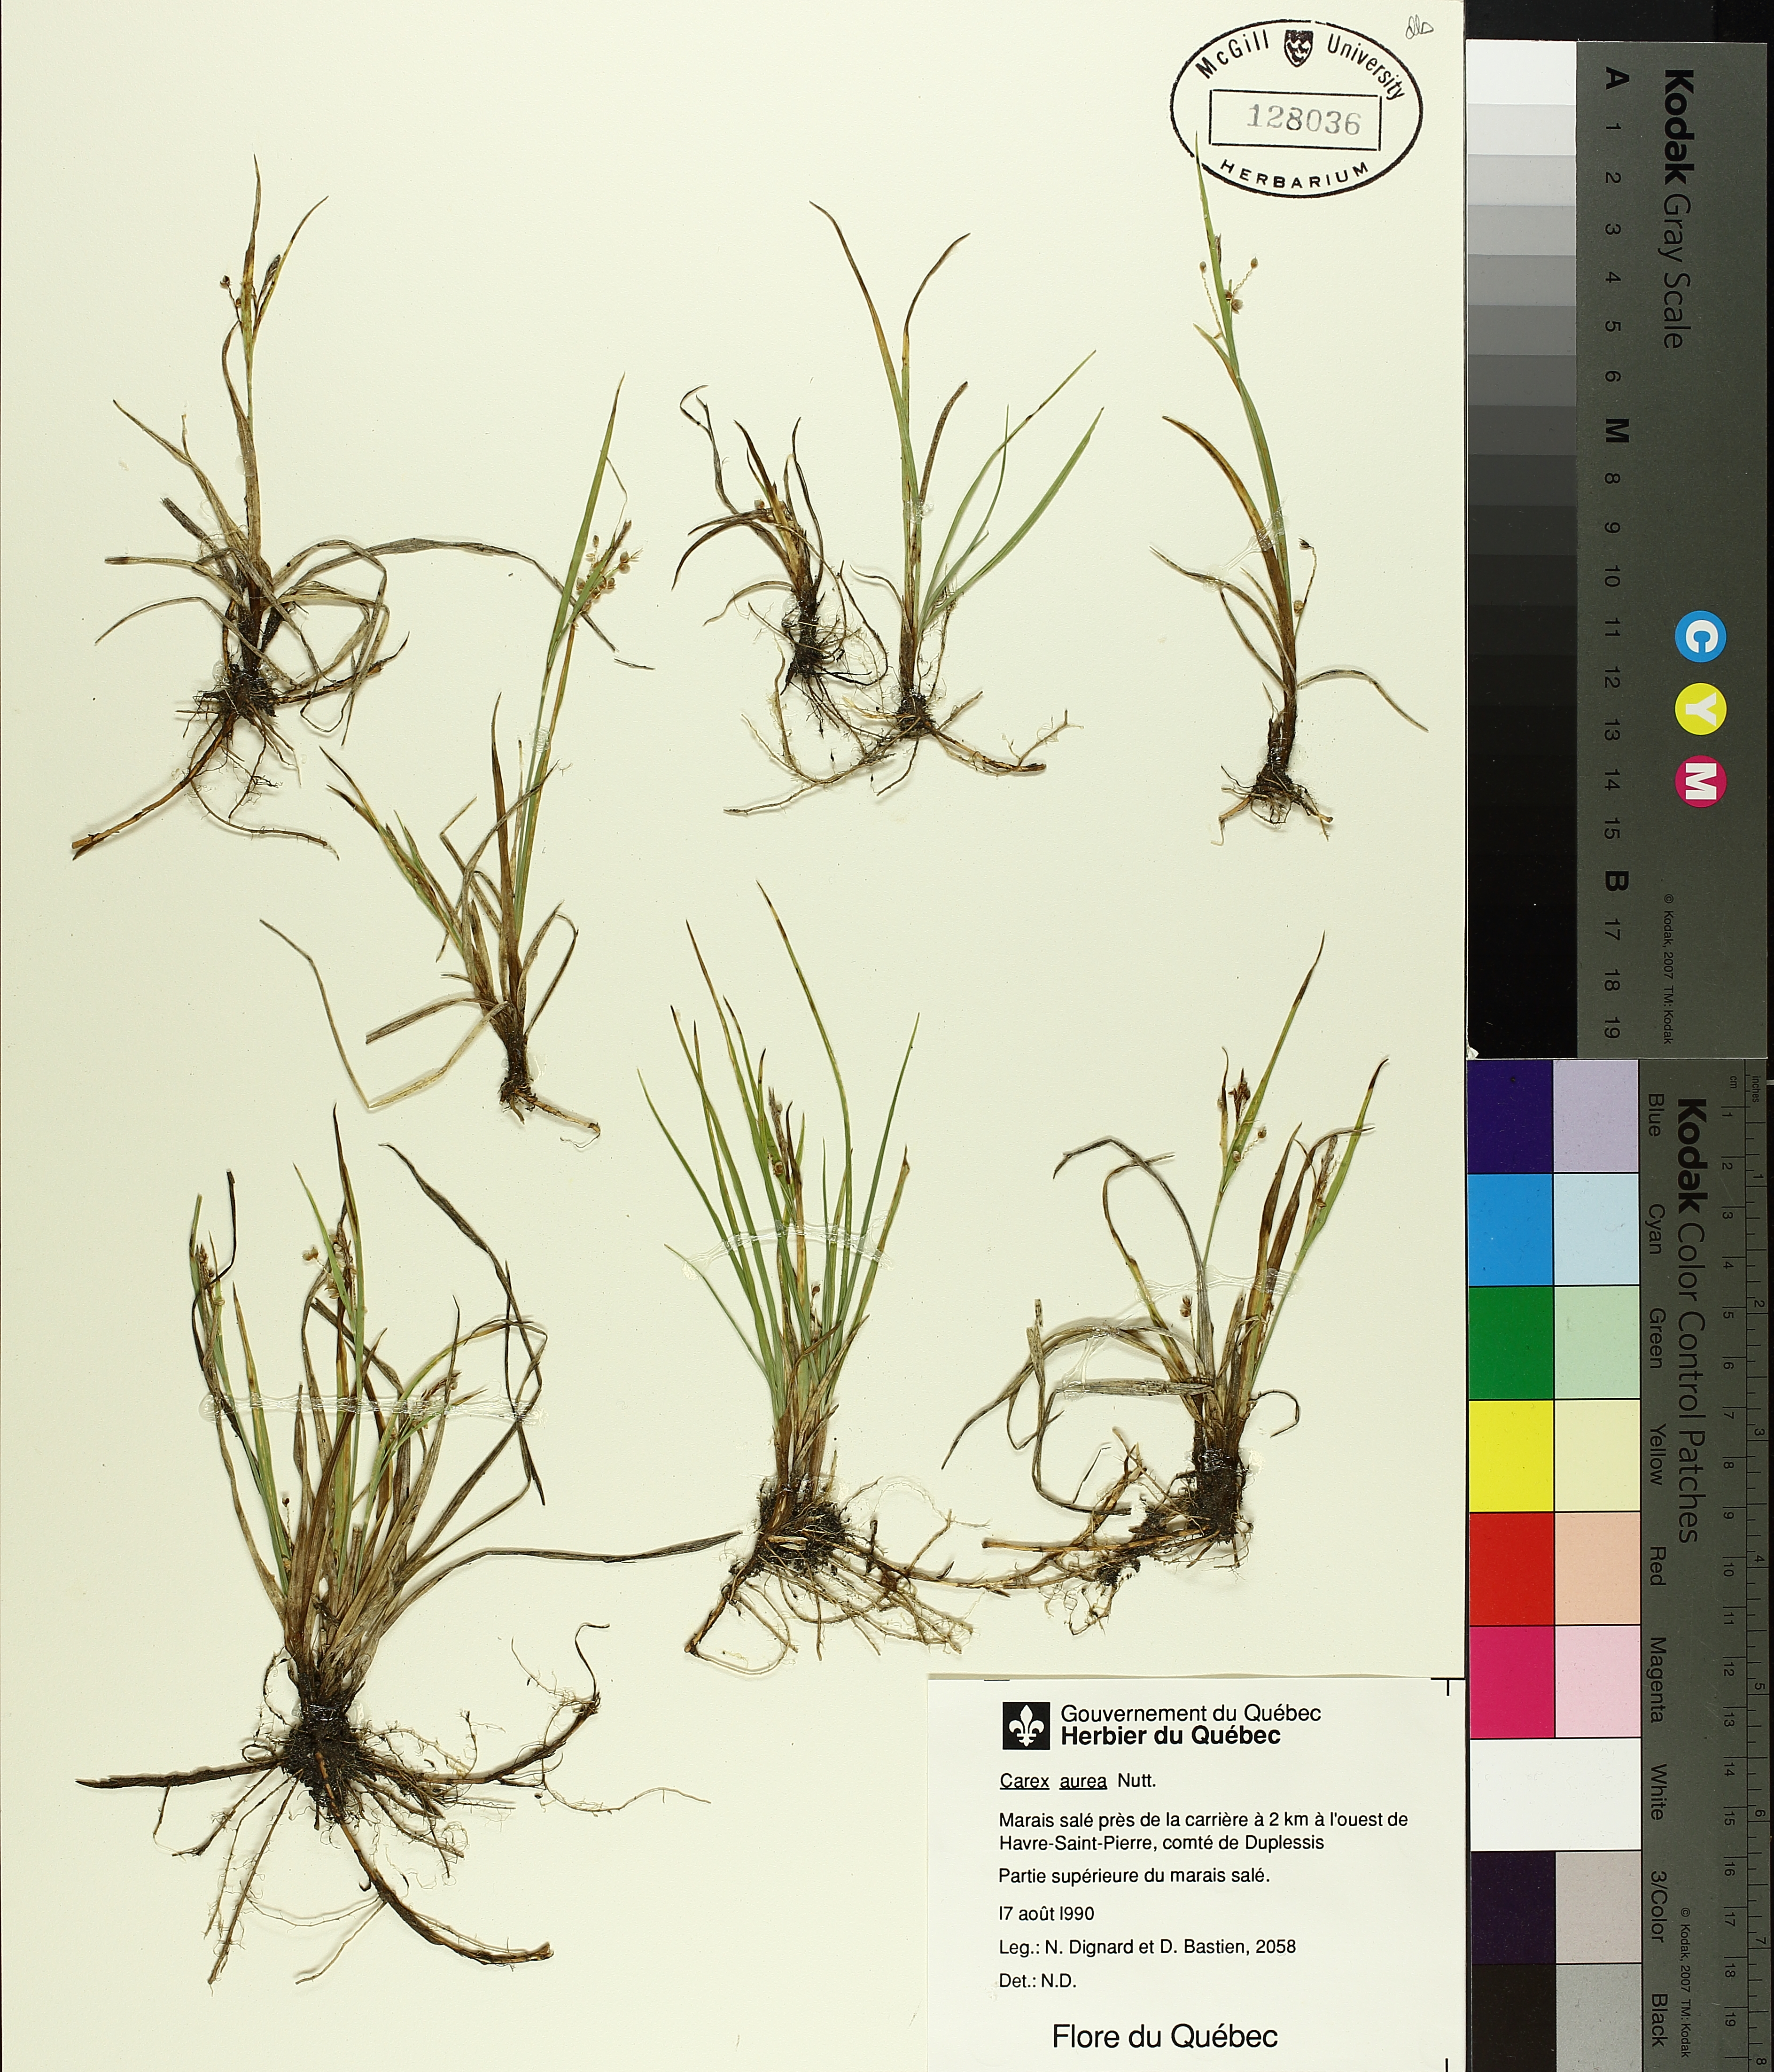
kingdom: Plantae
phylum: Tracheophyta
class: Liliopsida
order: Poales
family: Cyperaceae
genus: Carex
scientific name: Carex aurea
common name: Golden sedge
